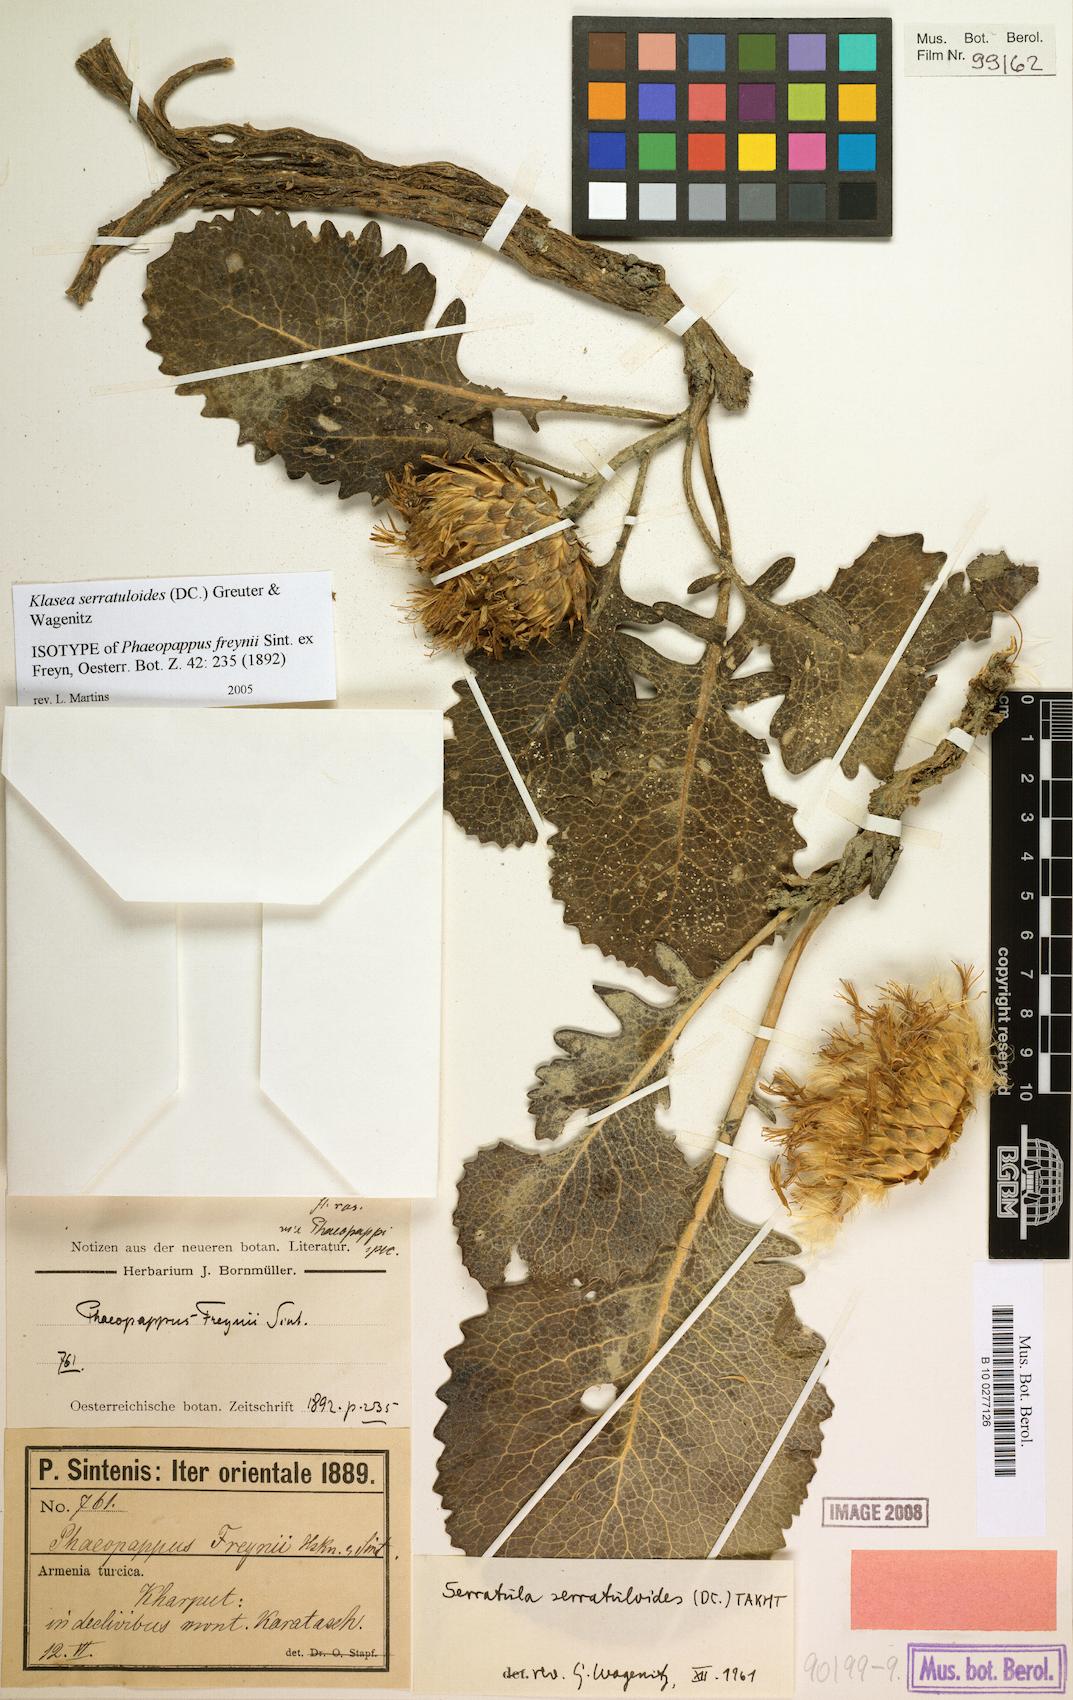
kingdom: Plantae
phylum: Tracheophyta
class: Magnoliopsida
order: Asterales
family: Asteraceae
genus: Klasea
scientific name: Klasea serratuloides
